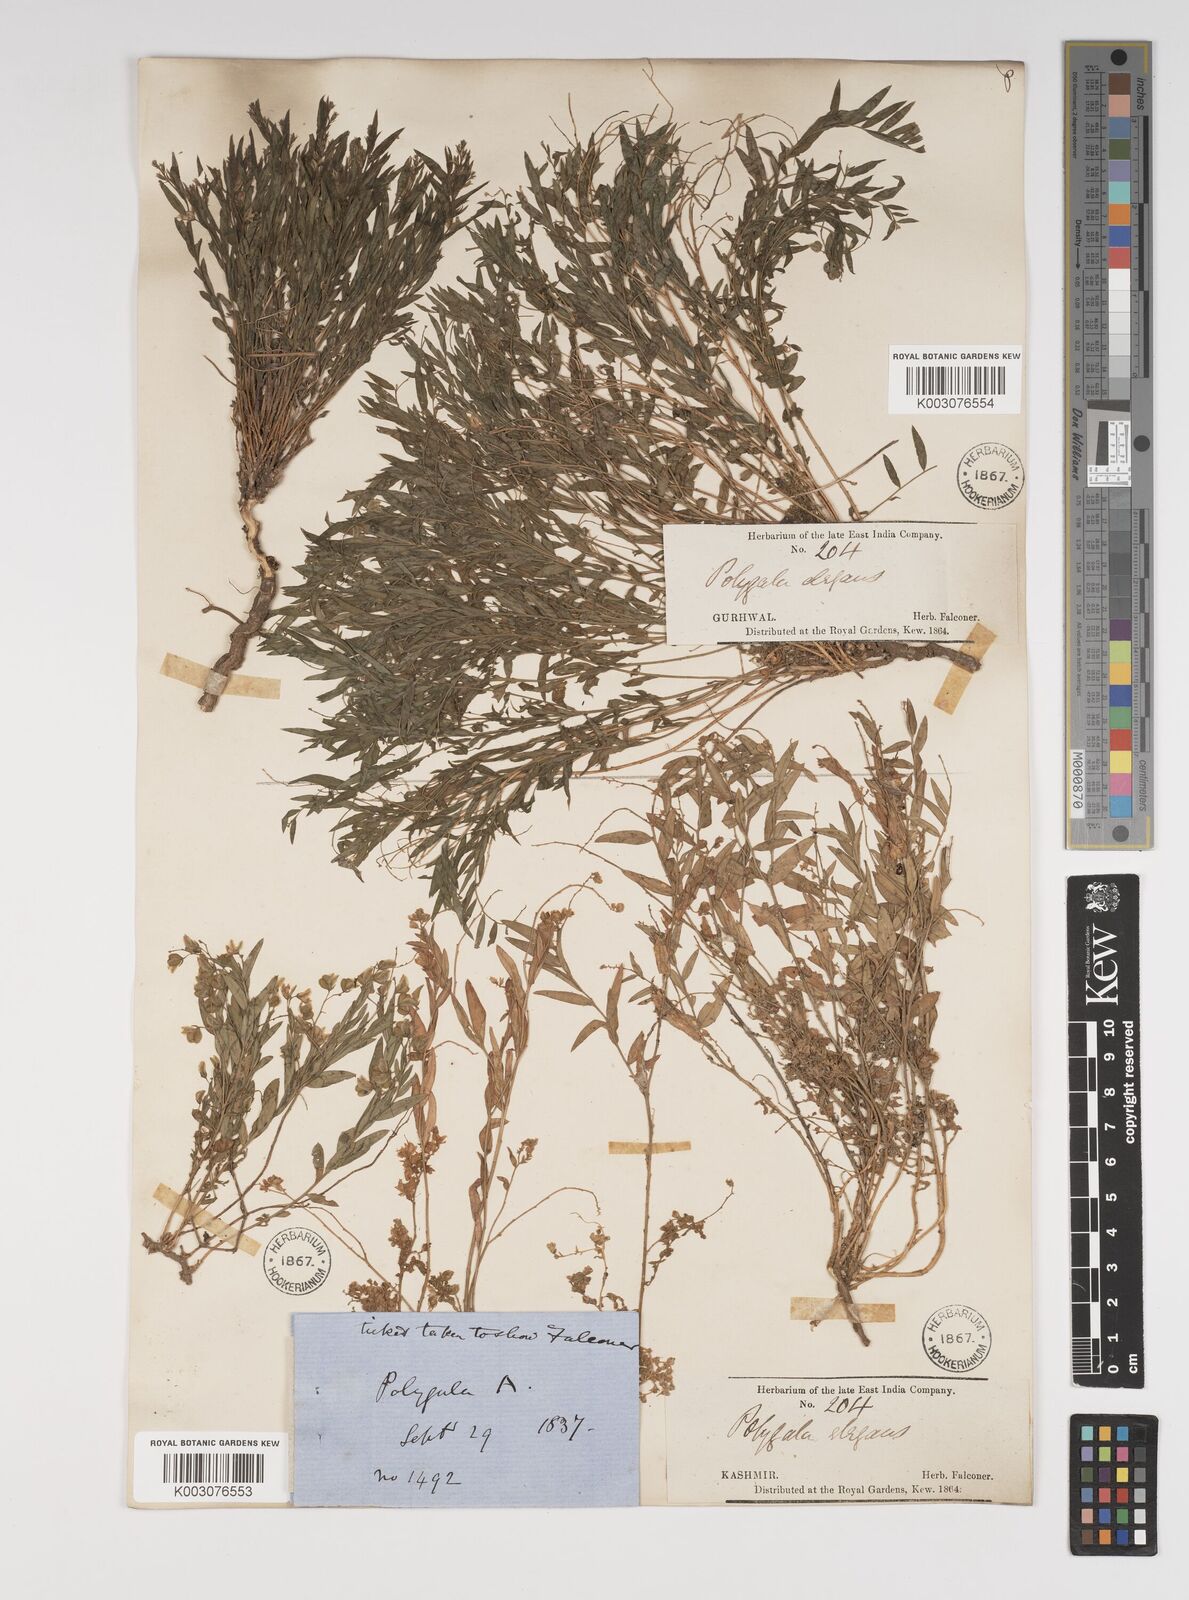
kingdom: Plantae
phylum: Tracheophyta
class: Magnoliopsida
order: Fabales
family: Polygalaceae
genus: Polygala
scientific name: Polygala sibirica
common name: Siberian polygala
